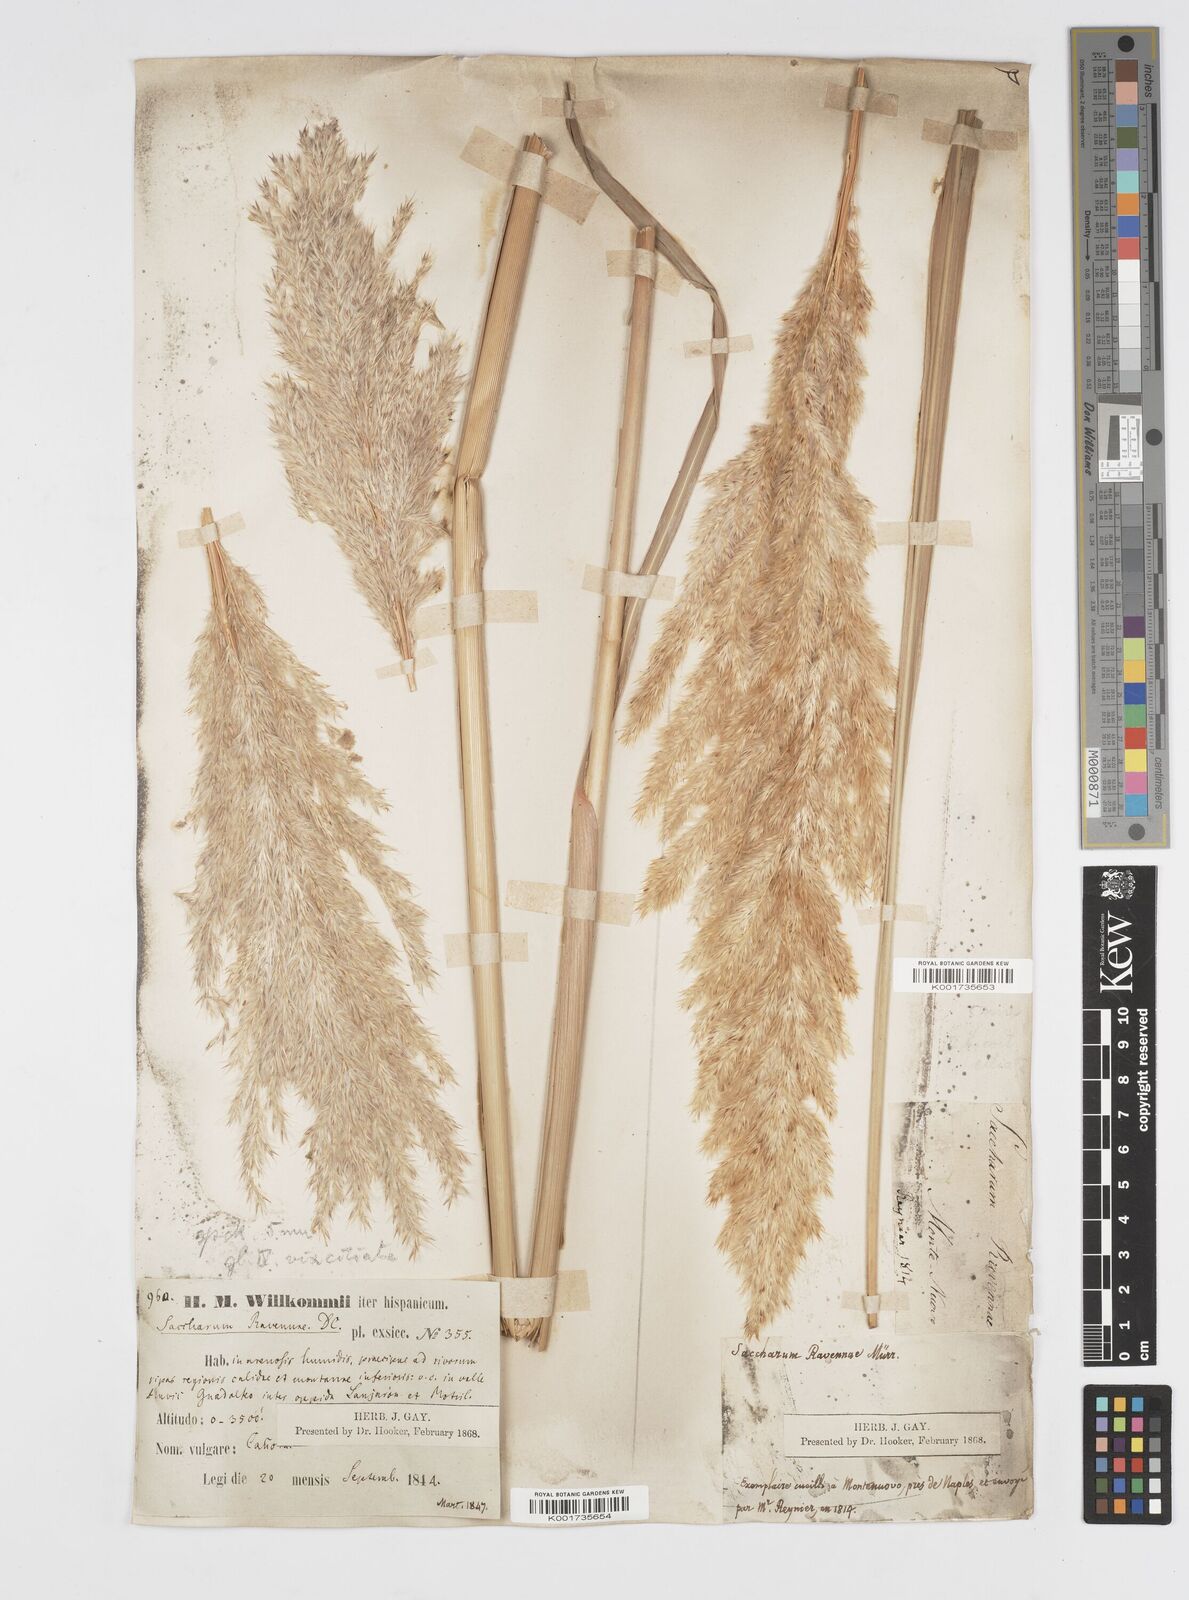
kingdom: Plantae
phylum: Tracheophyta
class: Liliopsida
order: Poales
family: Poaceae
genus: Tripidium
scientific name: Tripidium ravennae
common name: Ravenna grass
